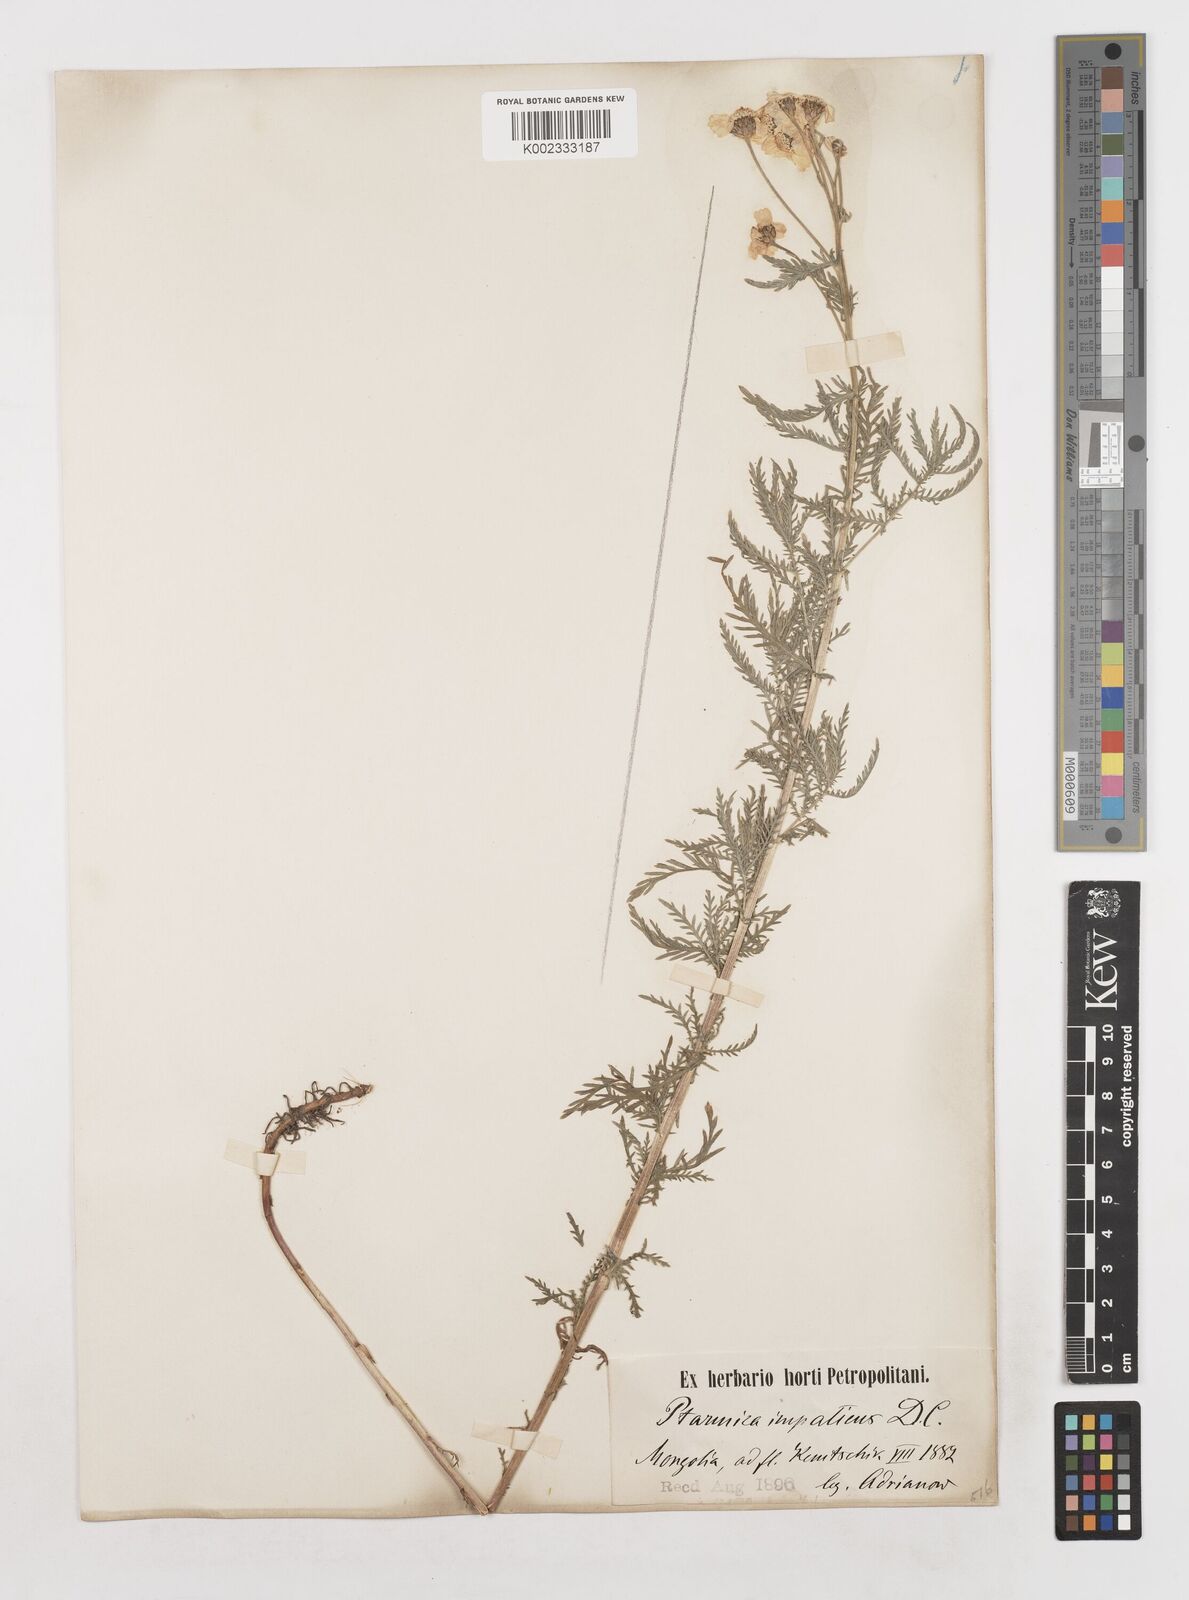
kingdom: Plantae
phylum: Tracheophyta
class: Magnoliopsida
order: Asterales
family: Asteraceae
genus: Achillea
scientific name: Achillea impatiens
